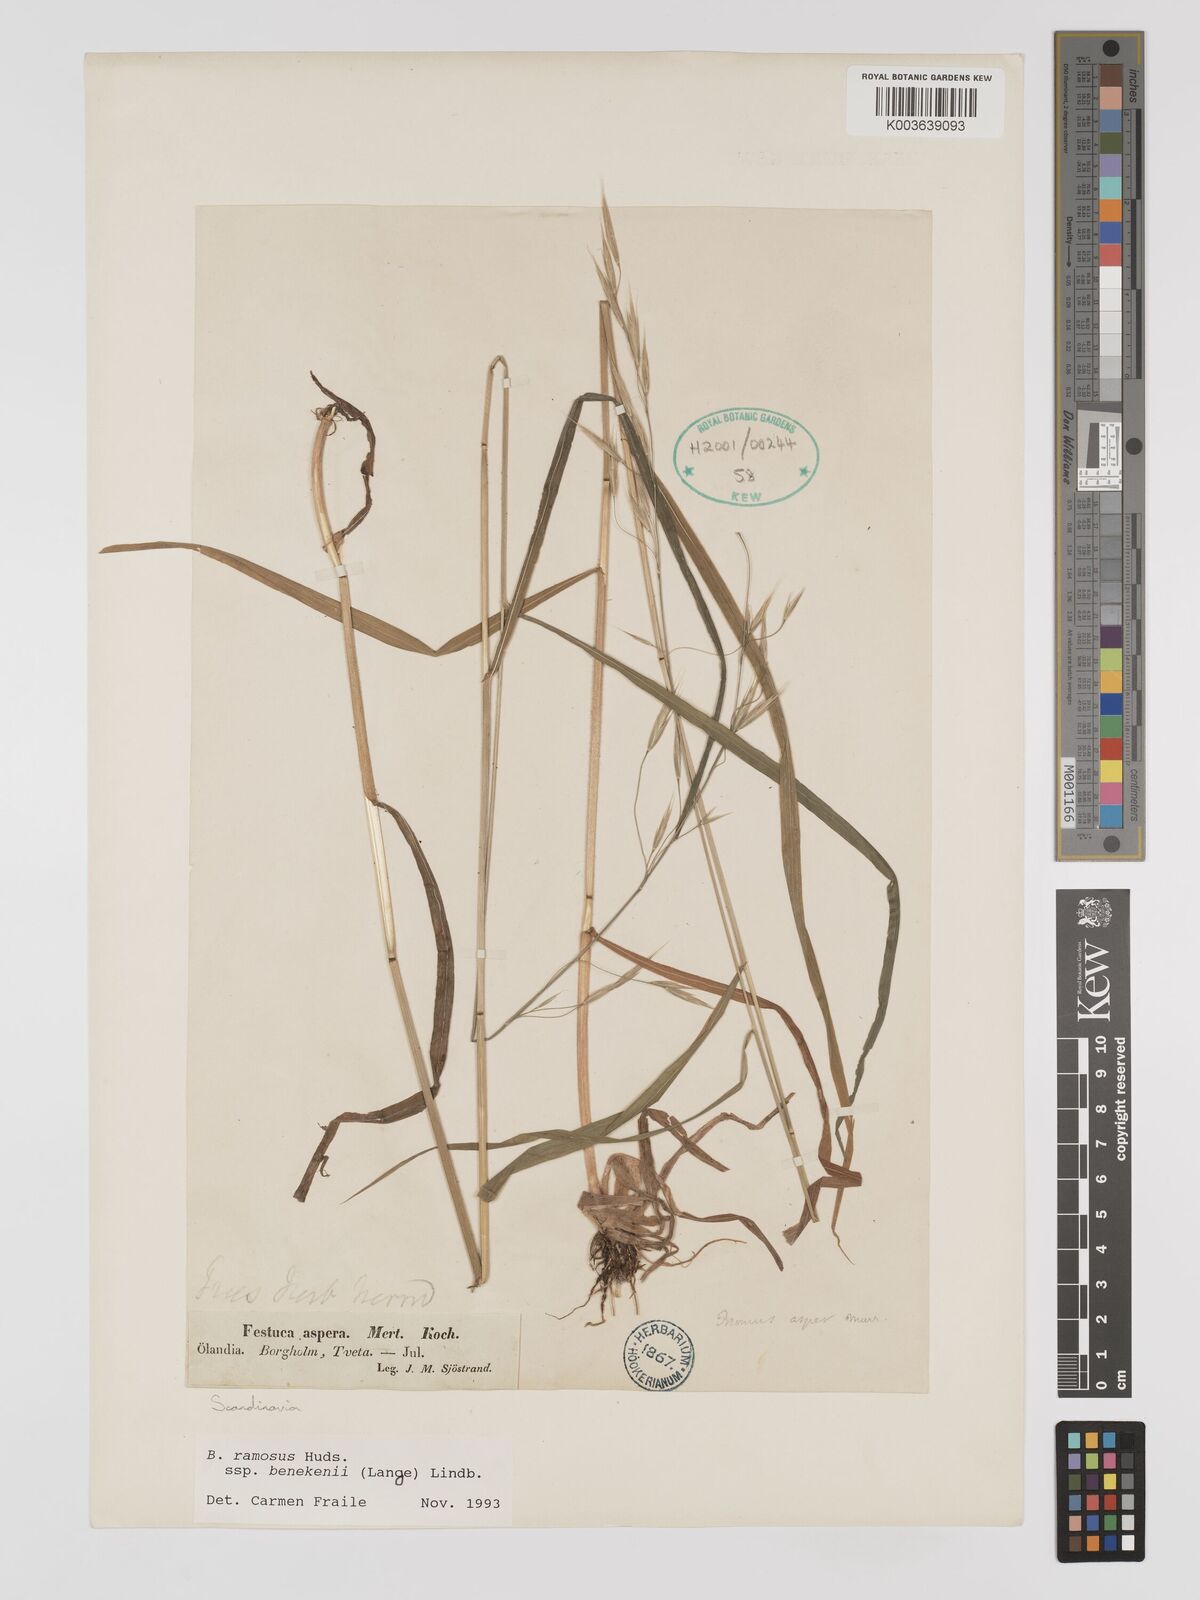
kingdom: Plantae
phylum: Tracheophyta
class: Liliopsida
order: Poales
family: Poaceae
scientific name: Poaceae
